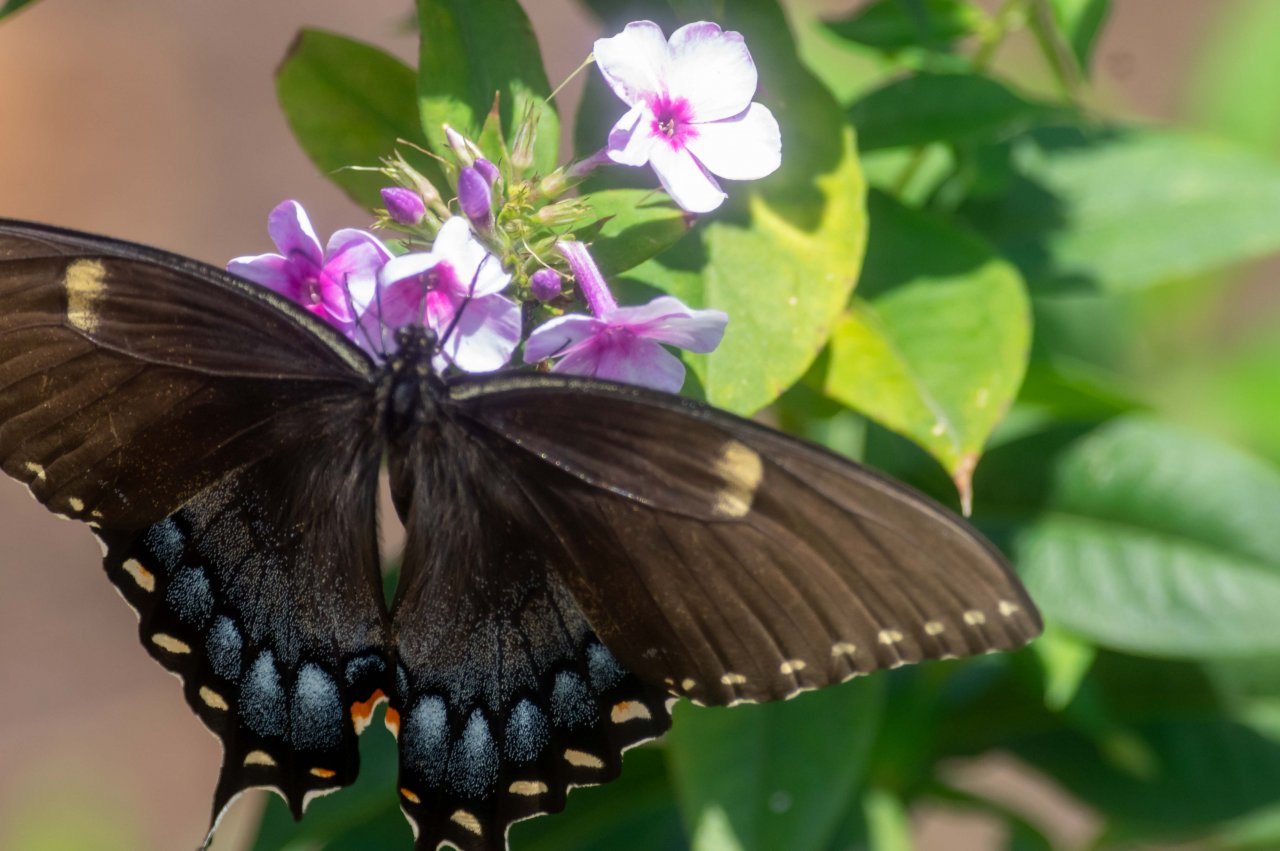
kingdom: Animalia
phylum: Arthropoda
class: Insecta
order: Lepidoptera
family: Papilionidae
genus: Pterourus
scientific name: Pterourus glaucus
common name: Eastern Tiger Swallowtail
